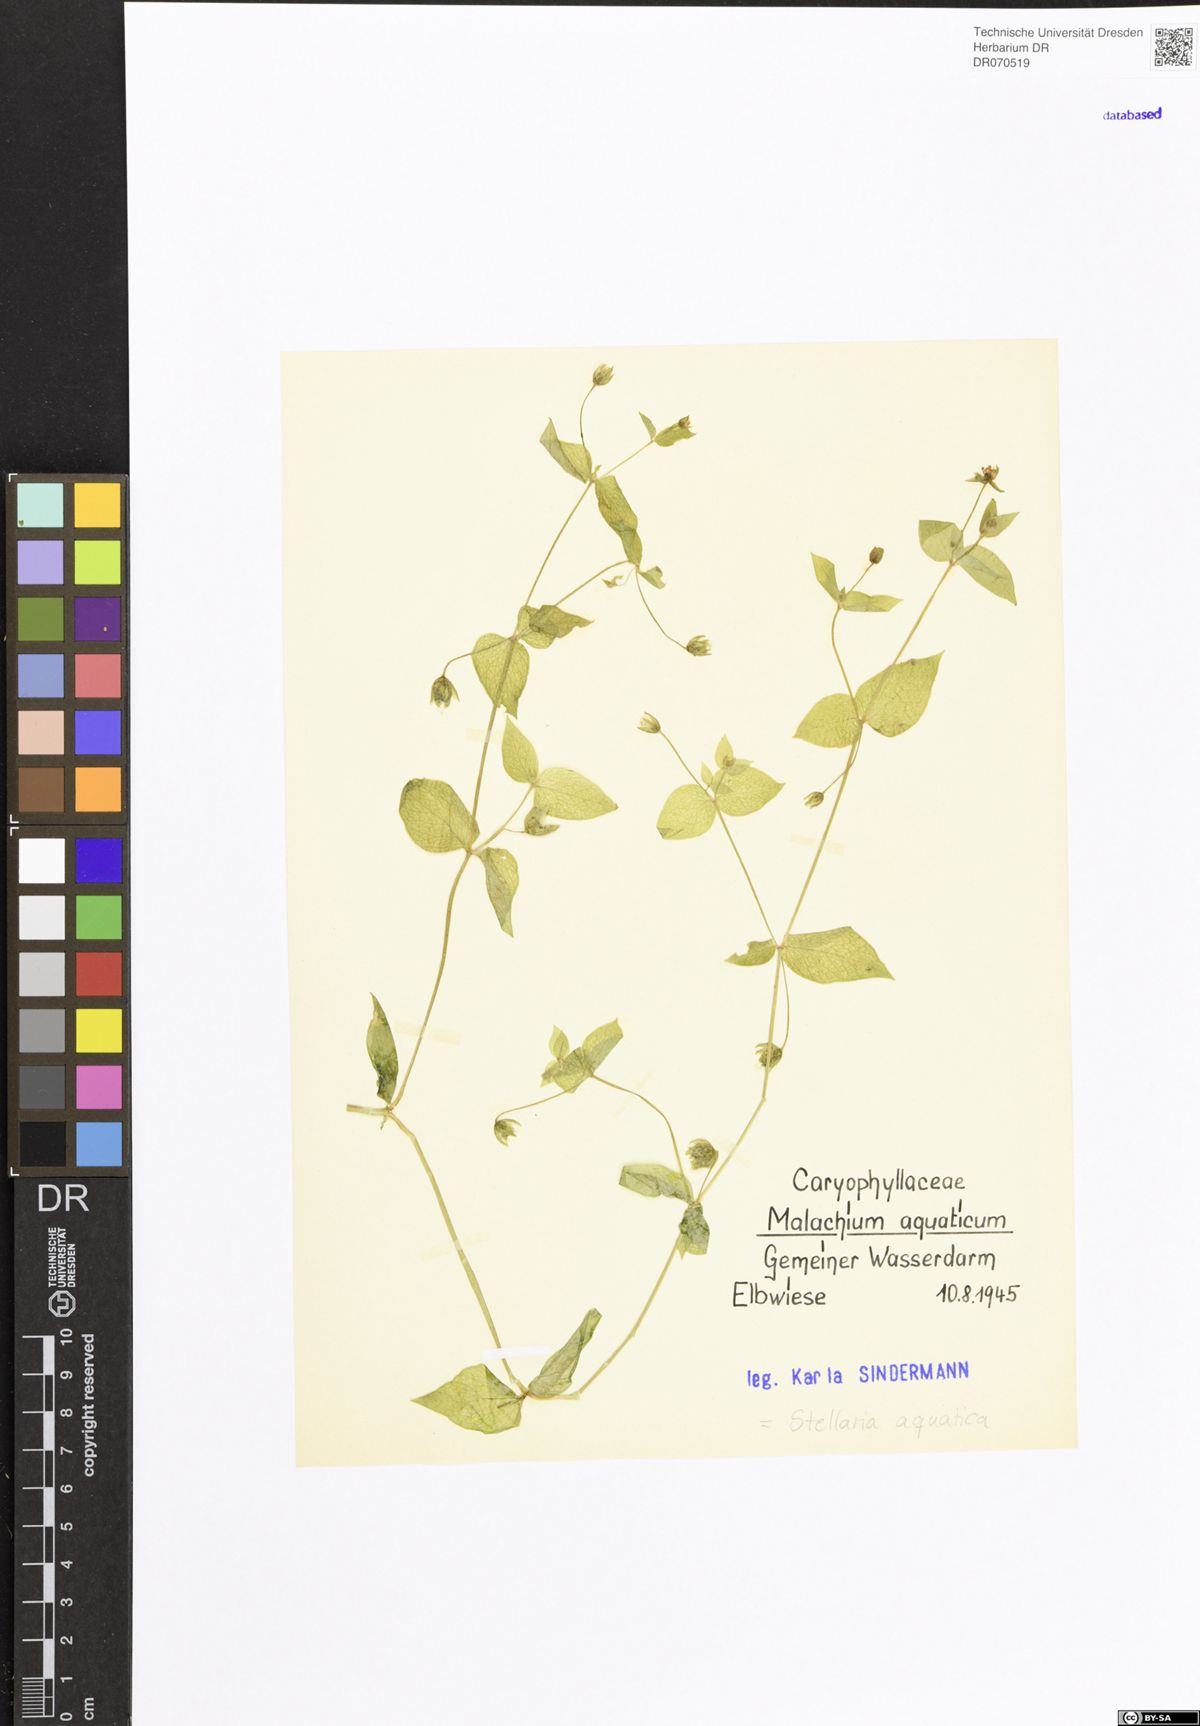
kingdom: Plantae
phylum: Tracheophyta
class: Magnoliopsida
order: Caryophyllales
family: Caryophyllaceae
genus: Stellaria
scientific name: Stellaria aquatica
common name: Water chickweed
